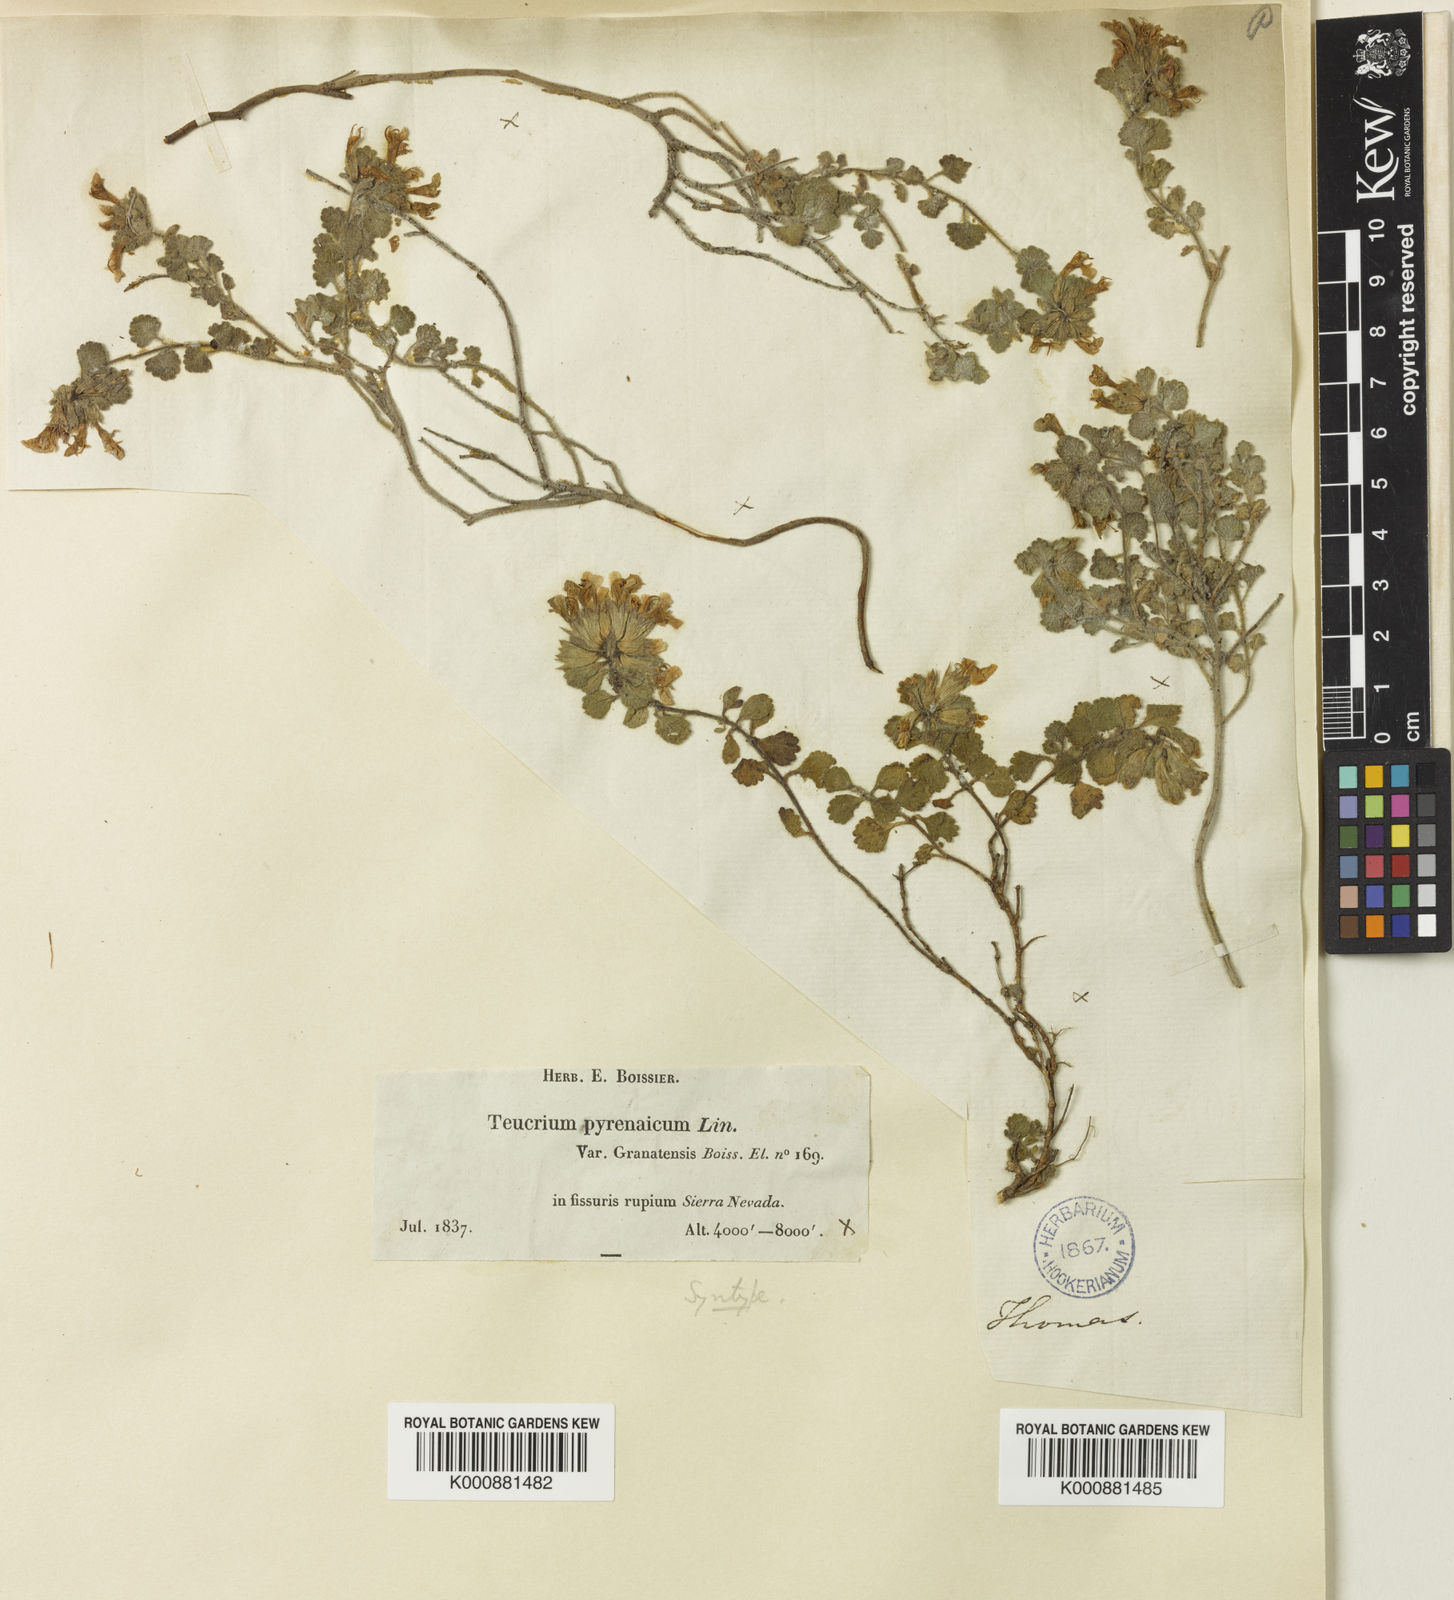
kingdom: Plantae
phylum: Tracheophyta
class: Magnoliopsida
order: Lamiales
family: Lamiaceae
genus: Teucrium
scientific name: Teucrium pyrenaicum
